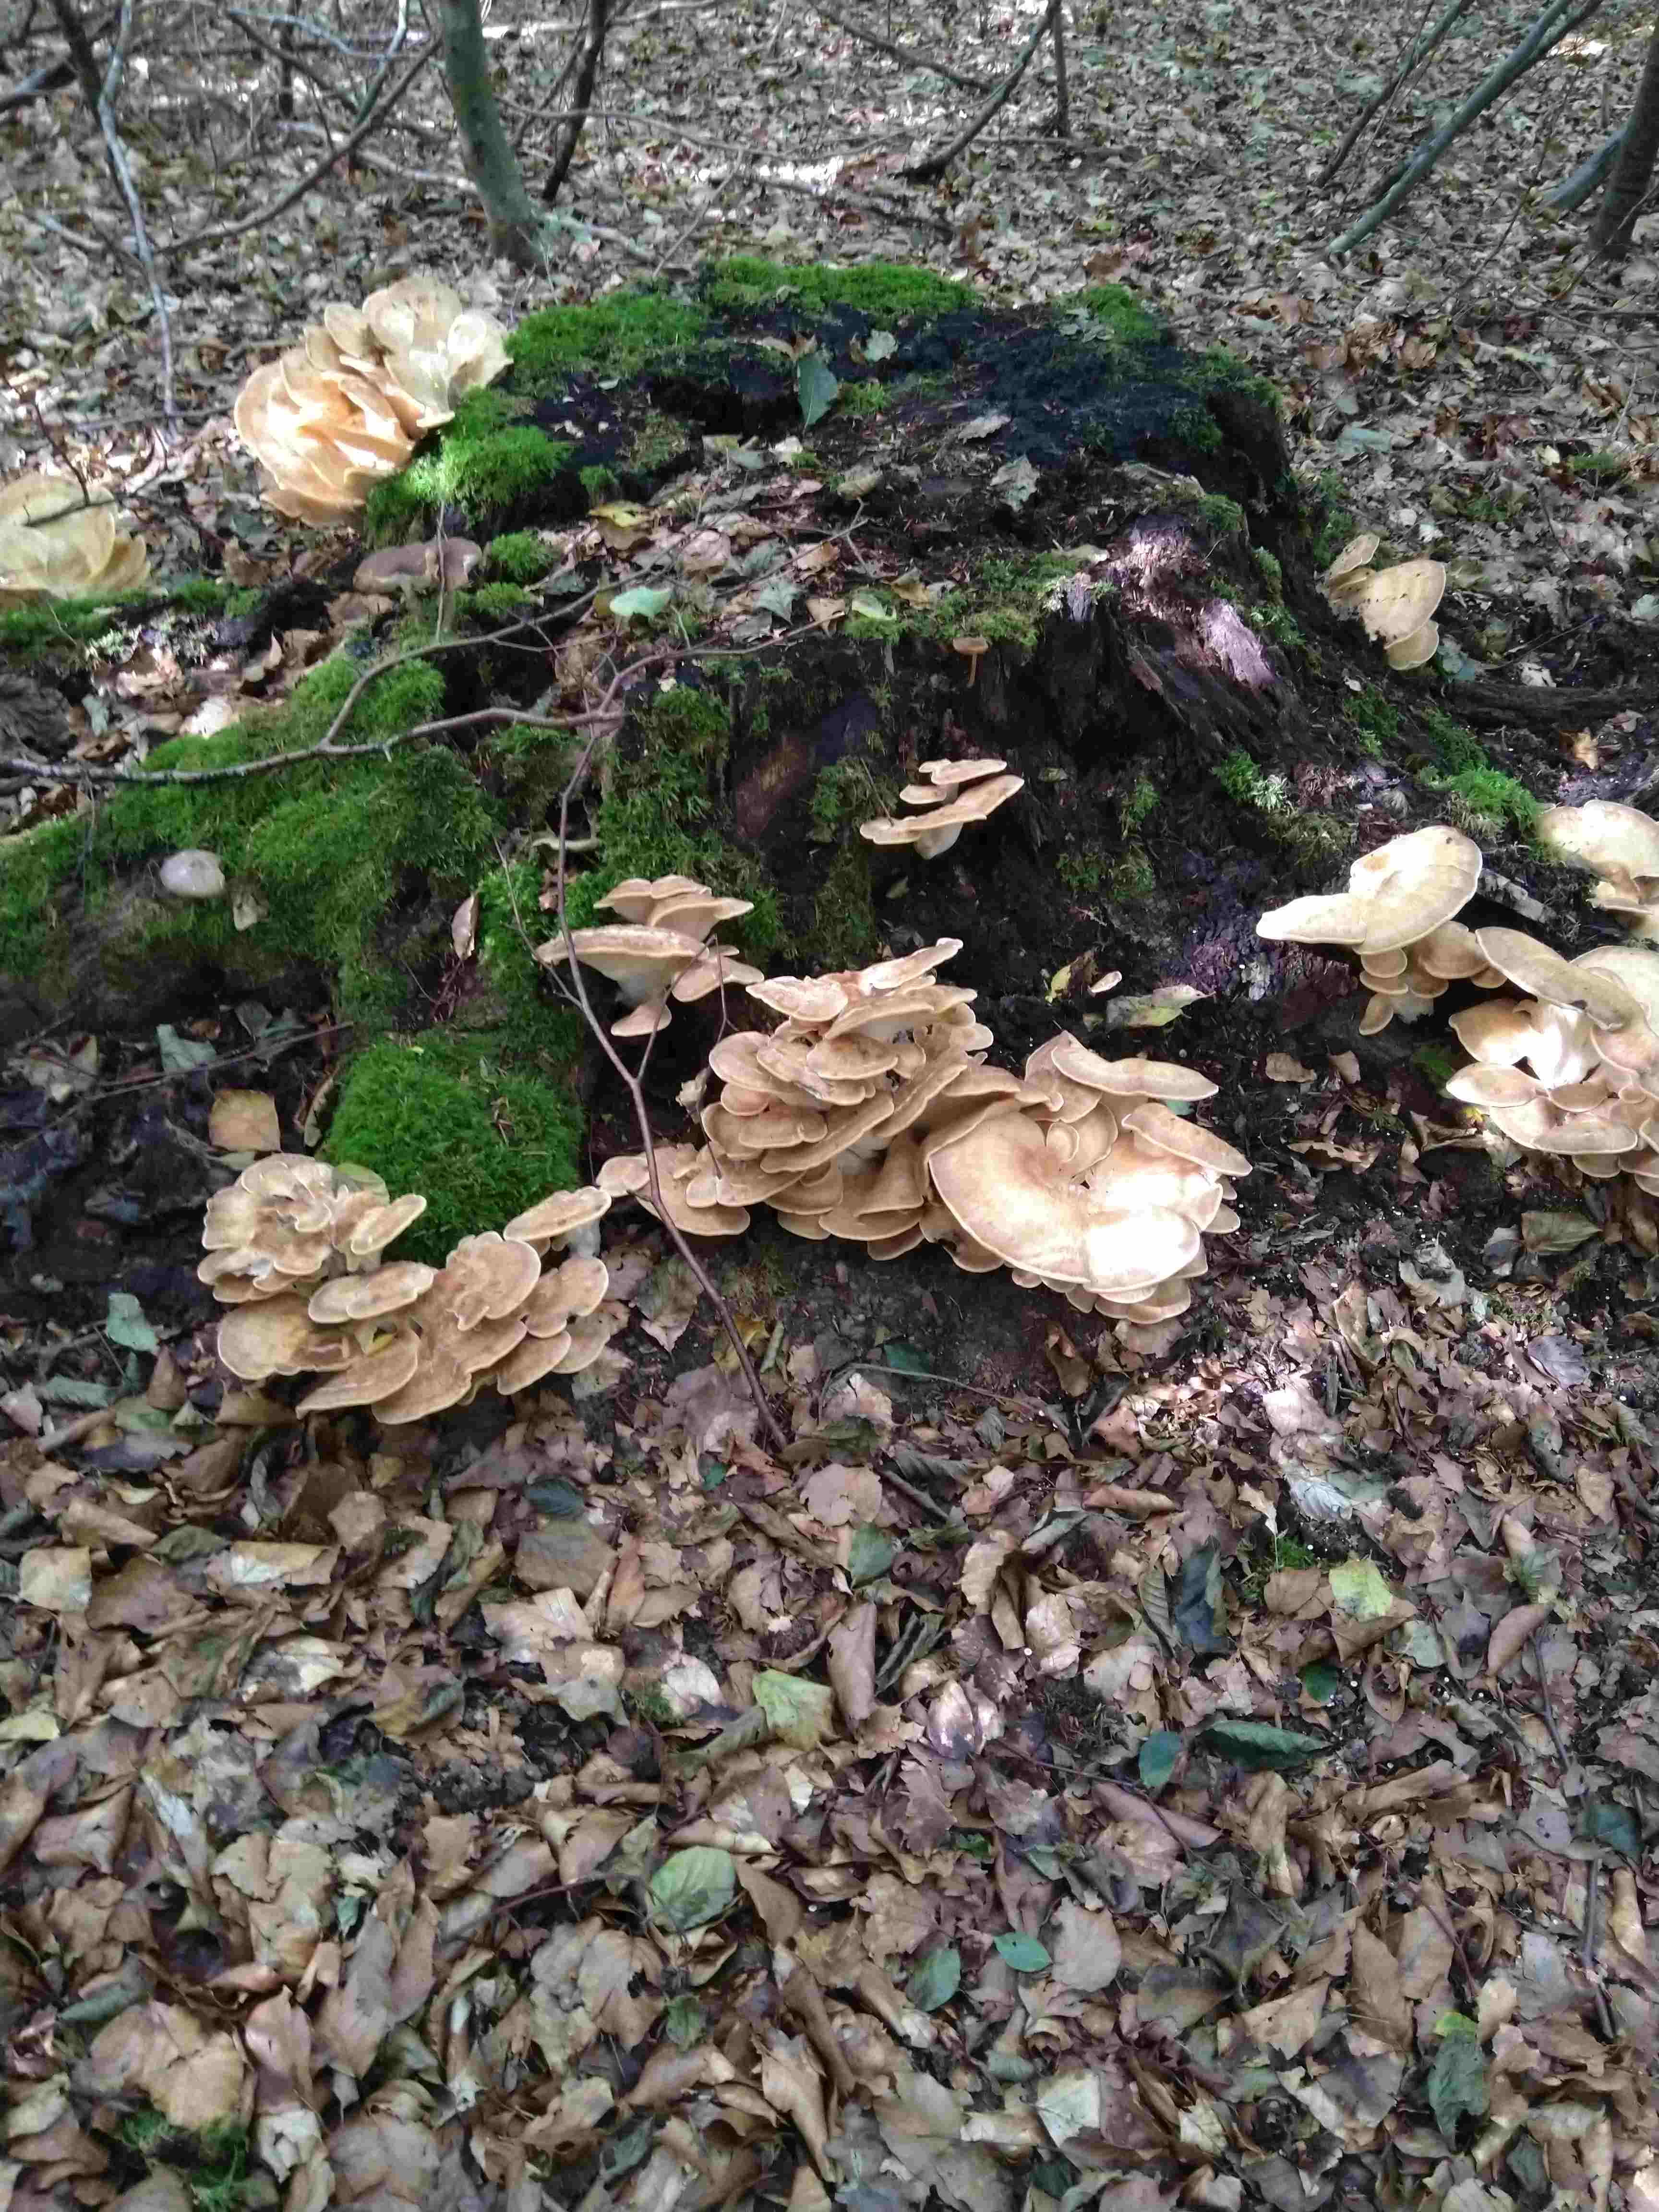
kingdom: Fungi
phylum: Basidiomycota
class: Agaricomycetes
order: Polyporales
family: Meripilaceae
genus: Meripilus
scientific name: Meripilus giganteus
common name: kæmpeporesvamp
